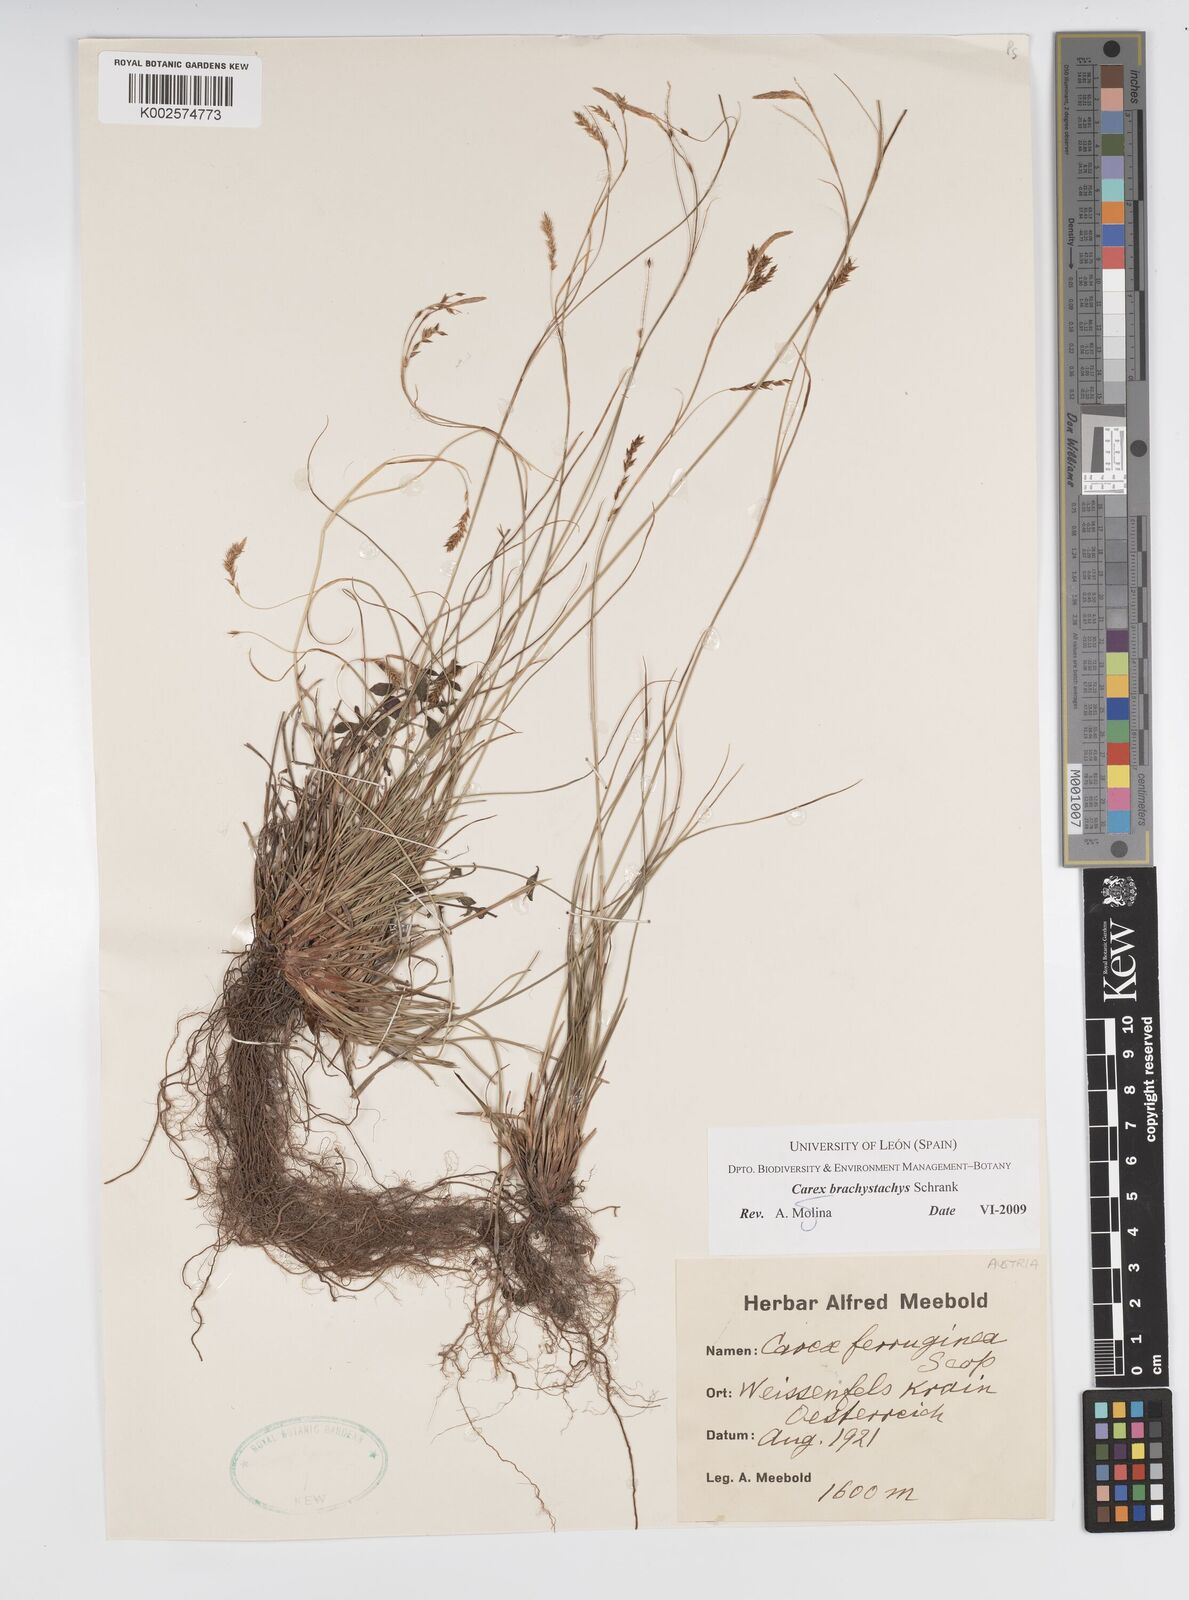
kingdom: Plantae
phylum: Tracheophyta
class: Liliopsida
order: Poales
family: Cyperaceae
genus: Carex
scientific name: Carex austroalpina
